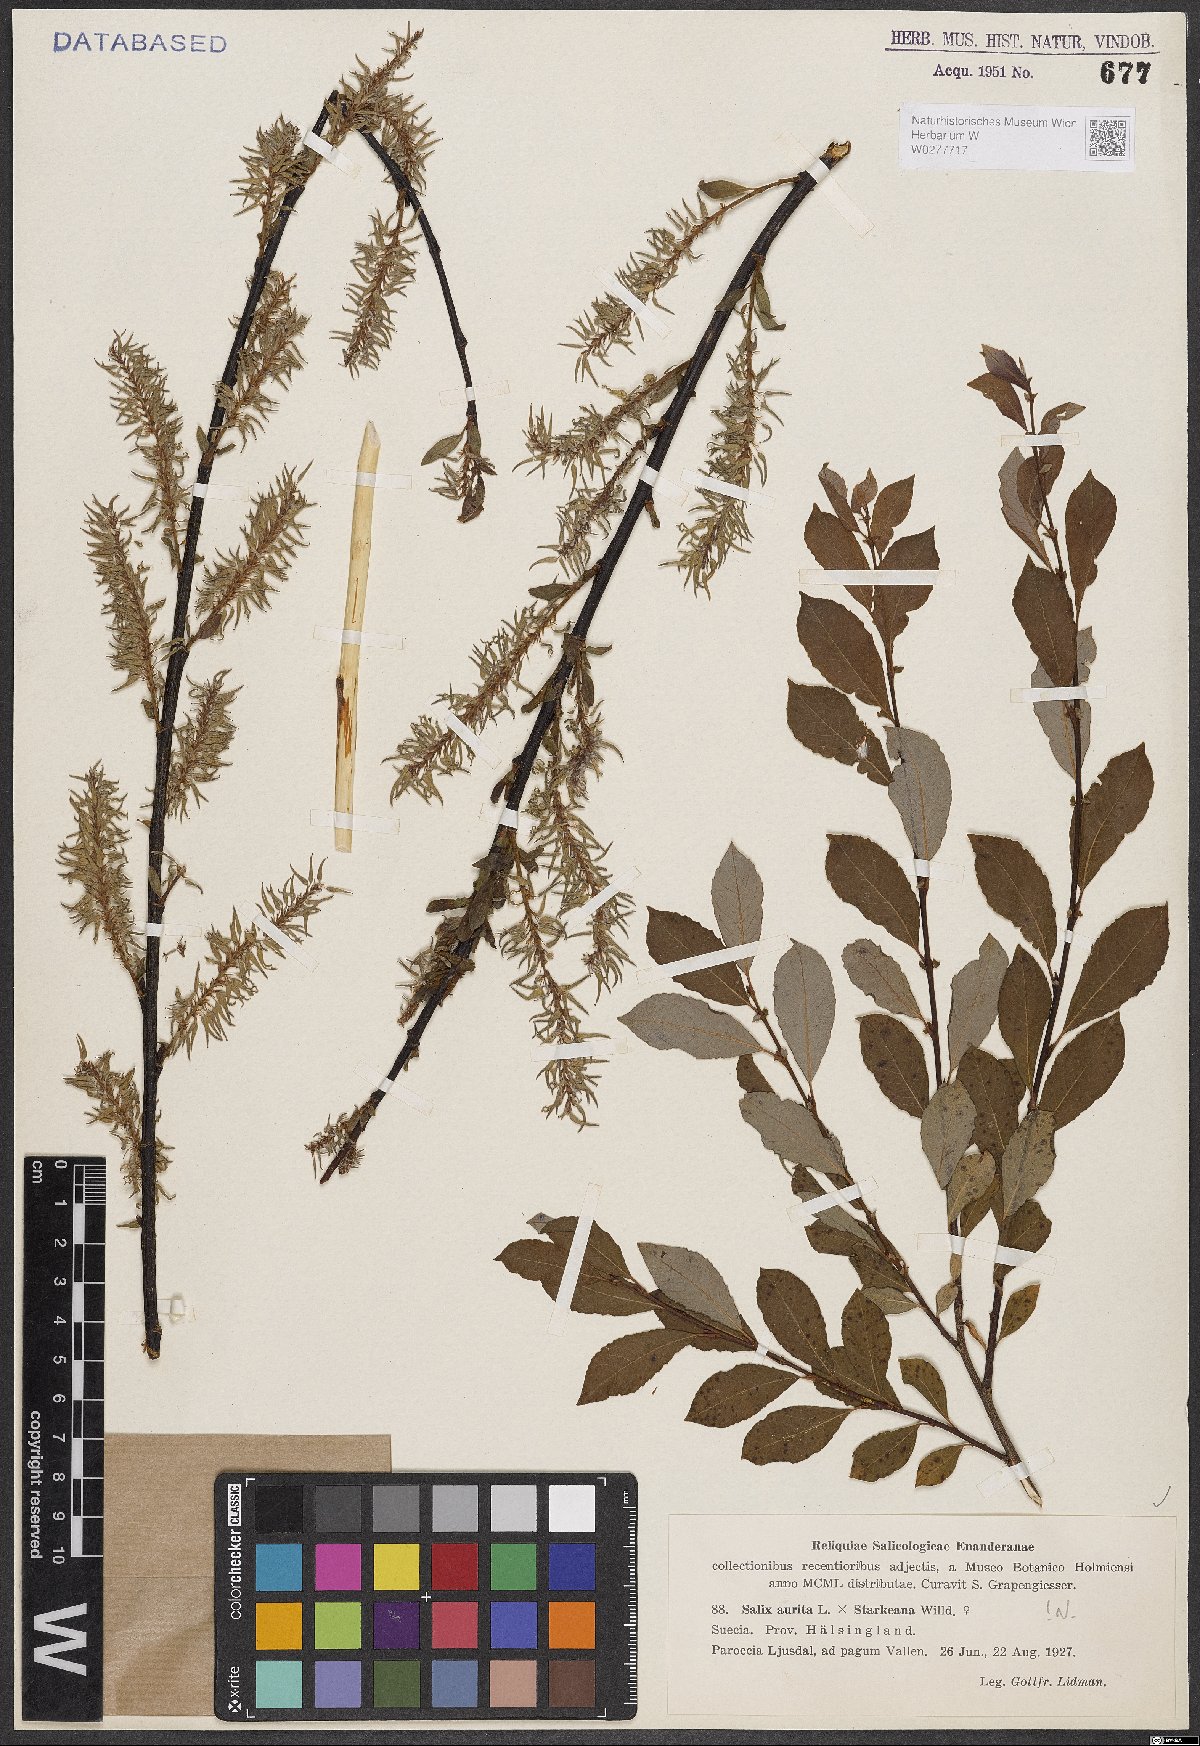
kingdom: Plantae
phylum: Tracheophyta
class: Magnoliopsida
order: Malpighiales
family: Salicaceae
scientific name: Salicaceae
